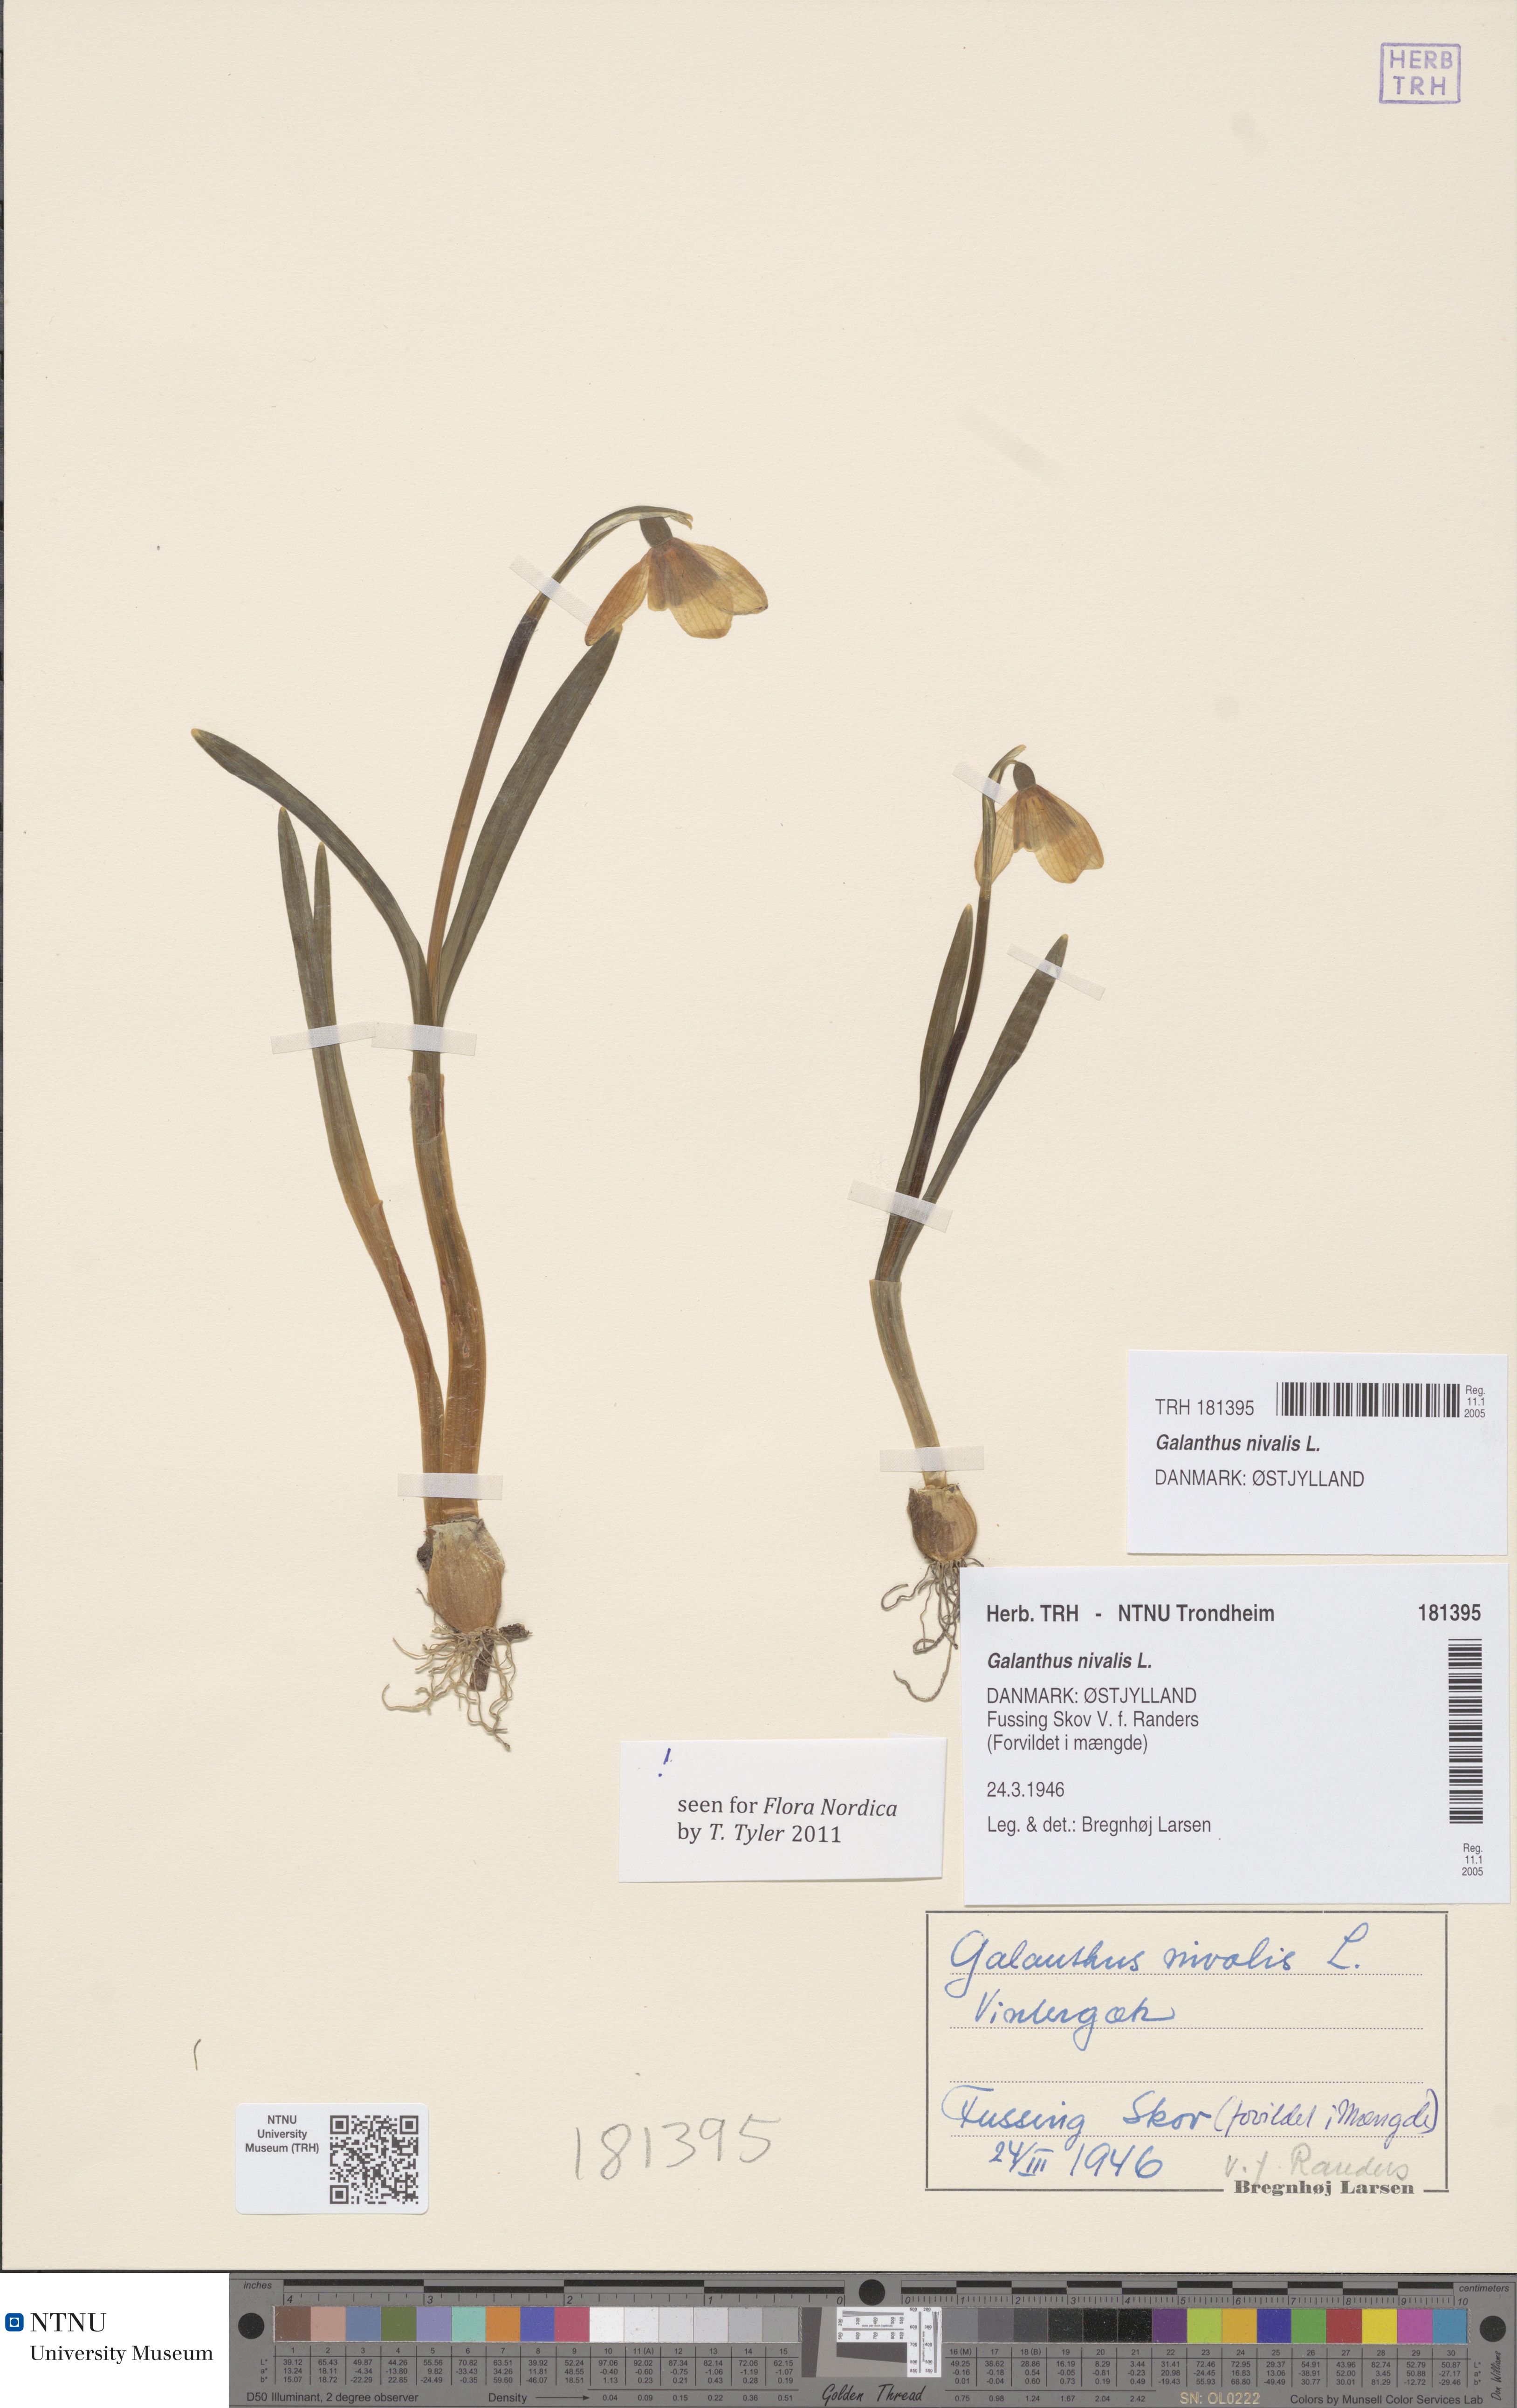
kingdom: Plantae
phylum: Tracheophyta
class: Liliopsida
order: Asparagales
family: Amaryllidaceae
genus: Galanthus
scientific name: Galanthus nivalis
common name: Snowdrop
